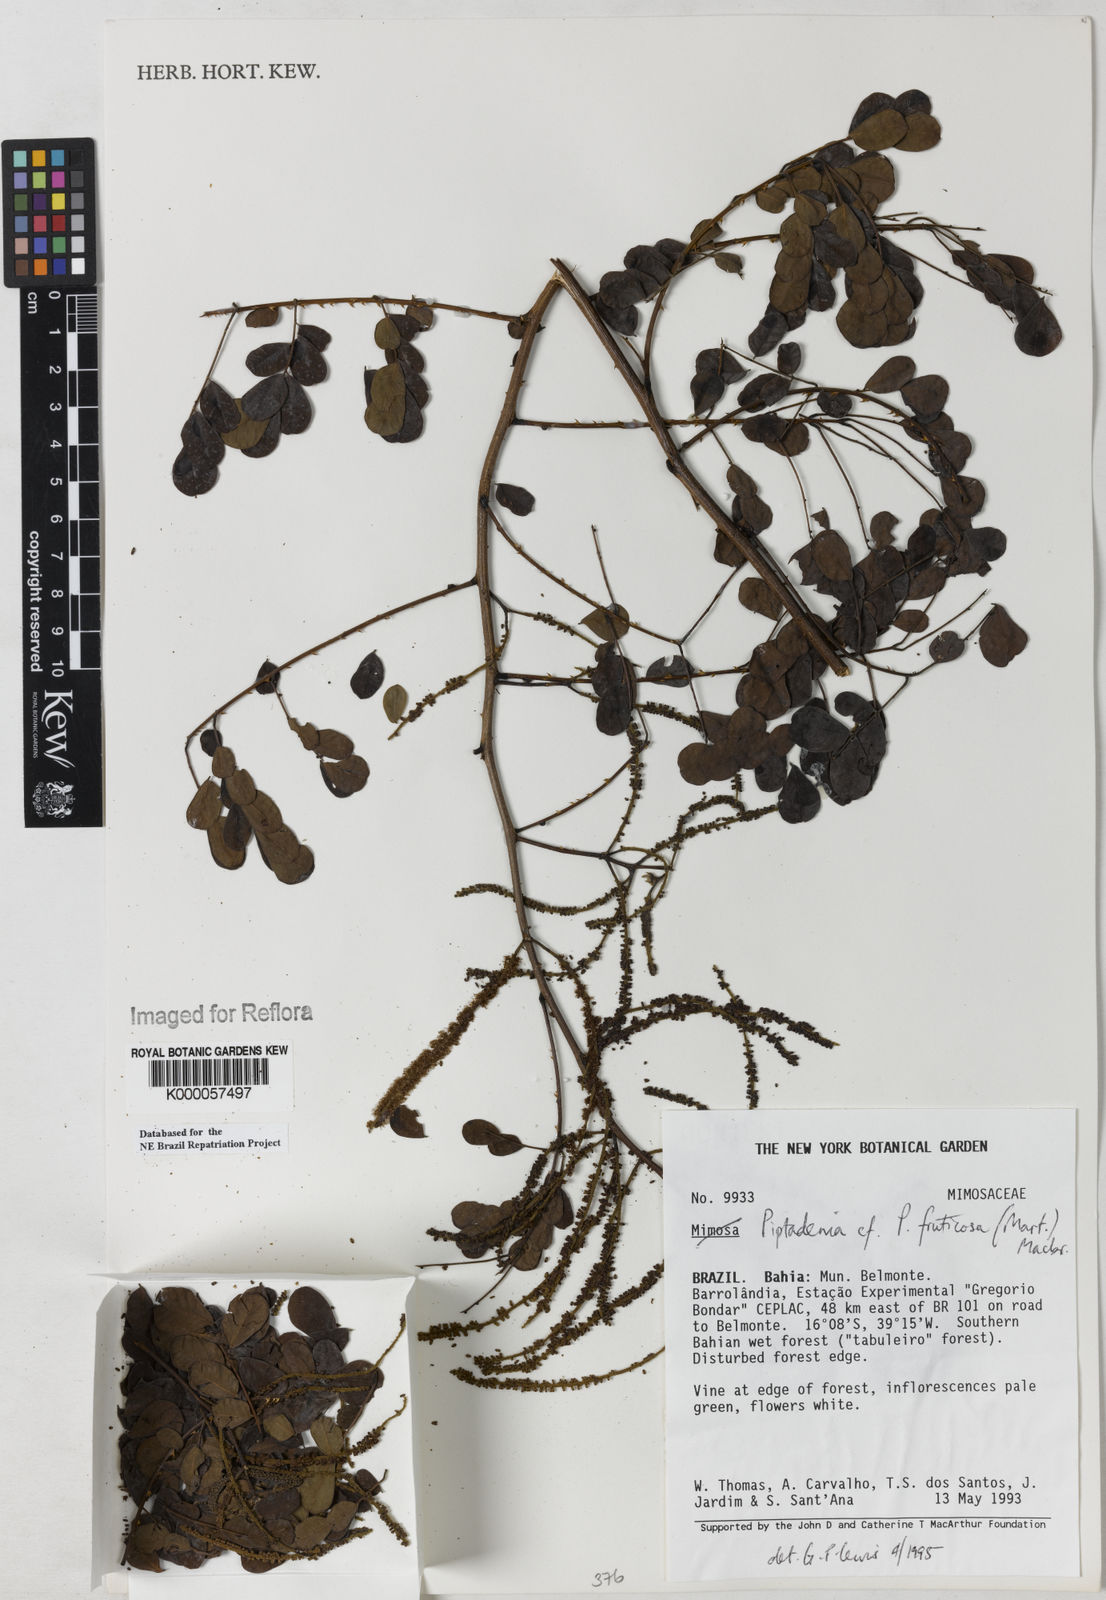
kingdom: Plantae
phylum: Tracheophyta
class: Magnoliopsida
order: Fabales
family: Fabaceae
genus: Piptadenia
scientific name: Piptadenia adiantoides
